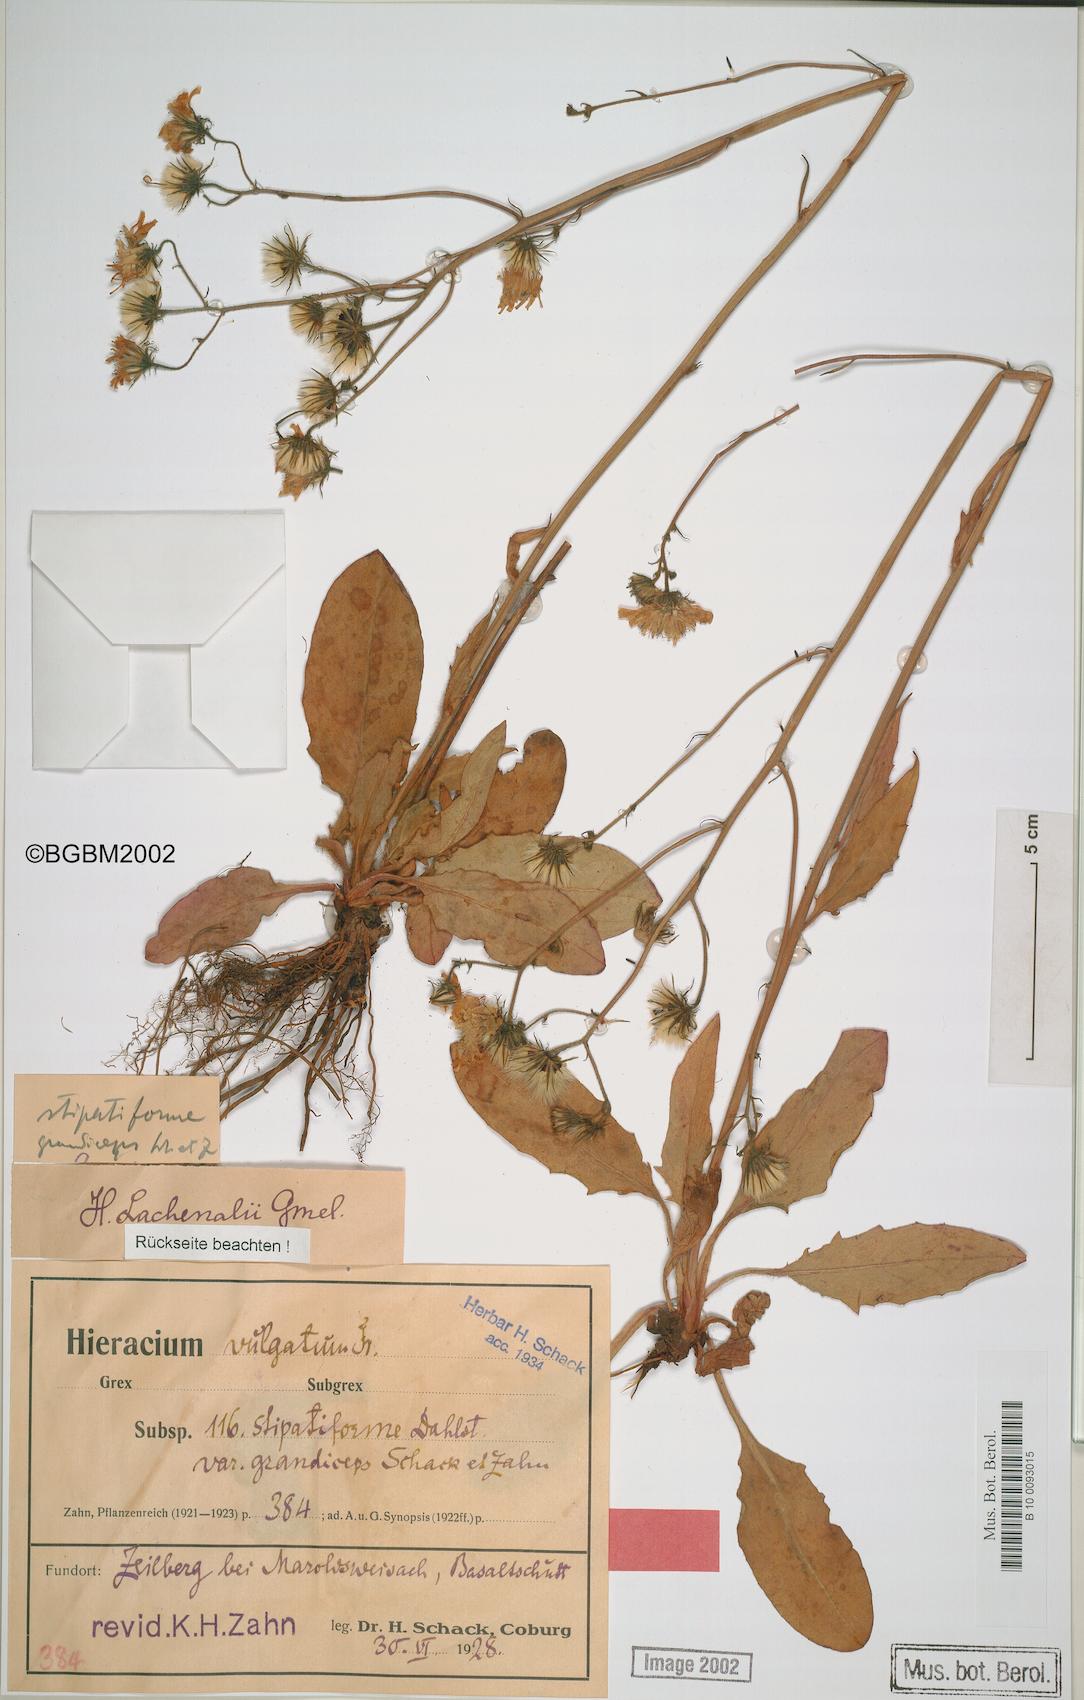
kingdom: Plantae
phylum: Tracheophyta
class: Magnoliopsida
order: Asterales
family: Asteraceae
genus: Hieracium
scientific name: Hieracium lachenalii
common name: Common hawkweed
